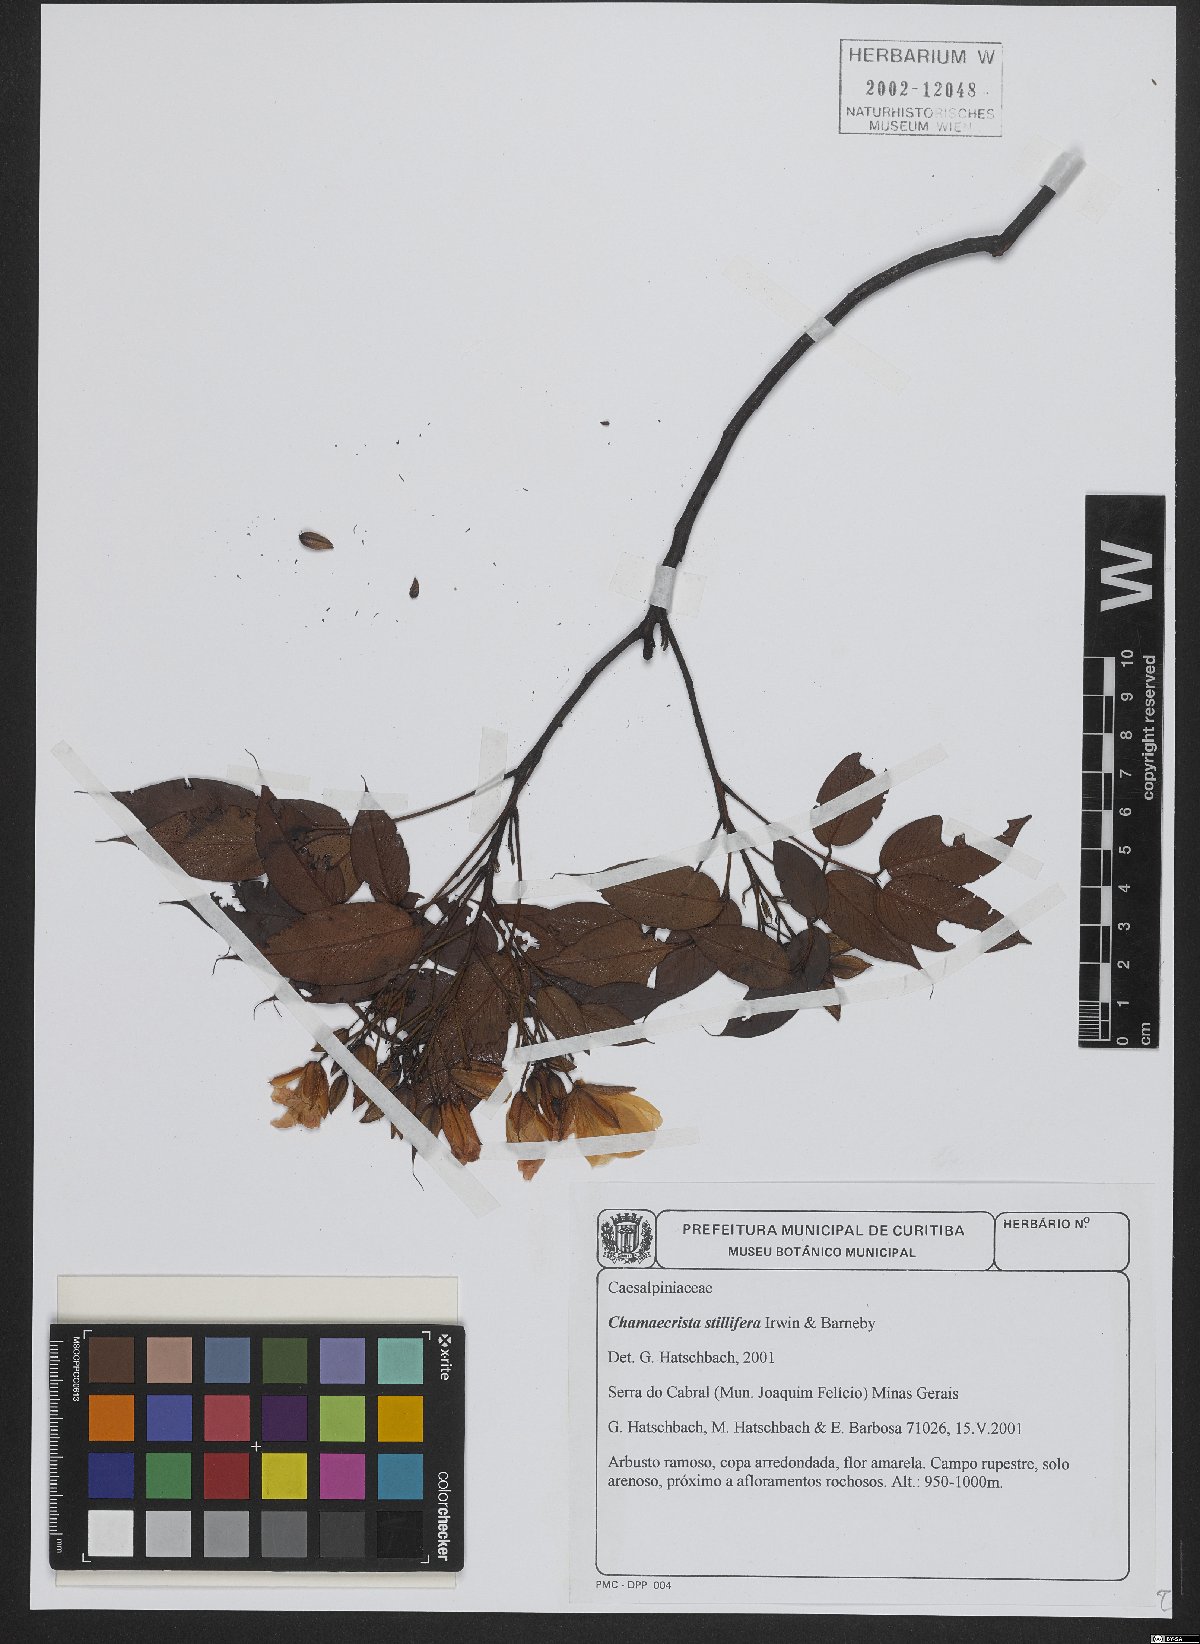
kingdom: Plantae
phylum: Tracheophyta
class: Magnoliopsida
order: Fabales
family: Fabaceae
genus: Chamaecrista
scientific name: Chamaecrista stillifera
